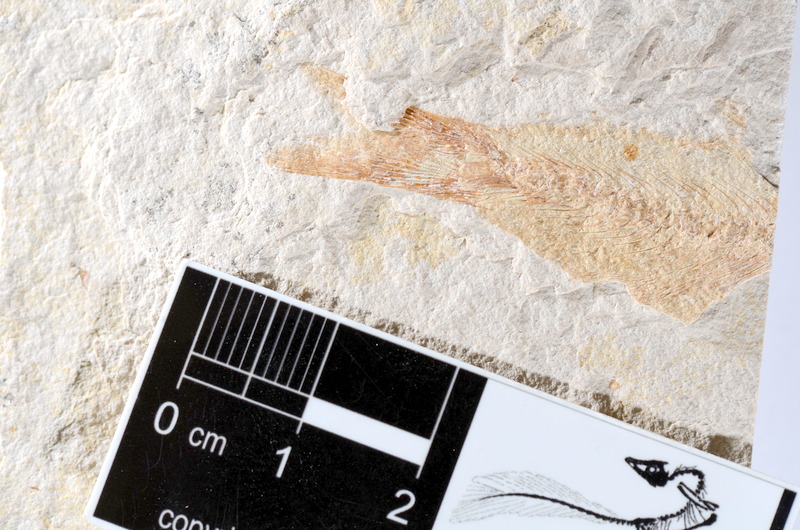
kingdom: Animalia
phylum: Chordata
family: Ascalaboidae
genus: Tharsis
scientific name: Tharsis dubius
